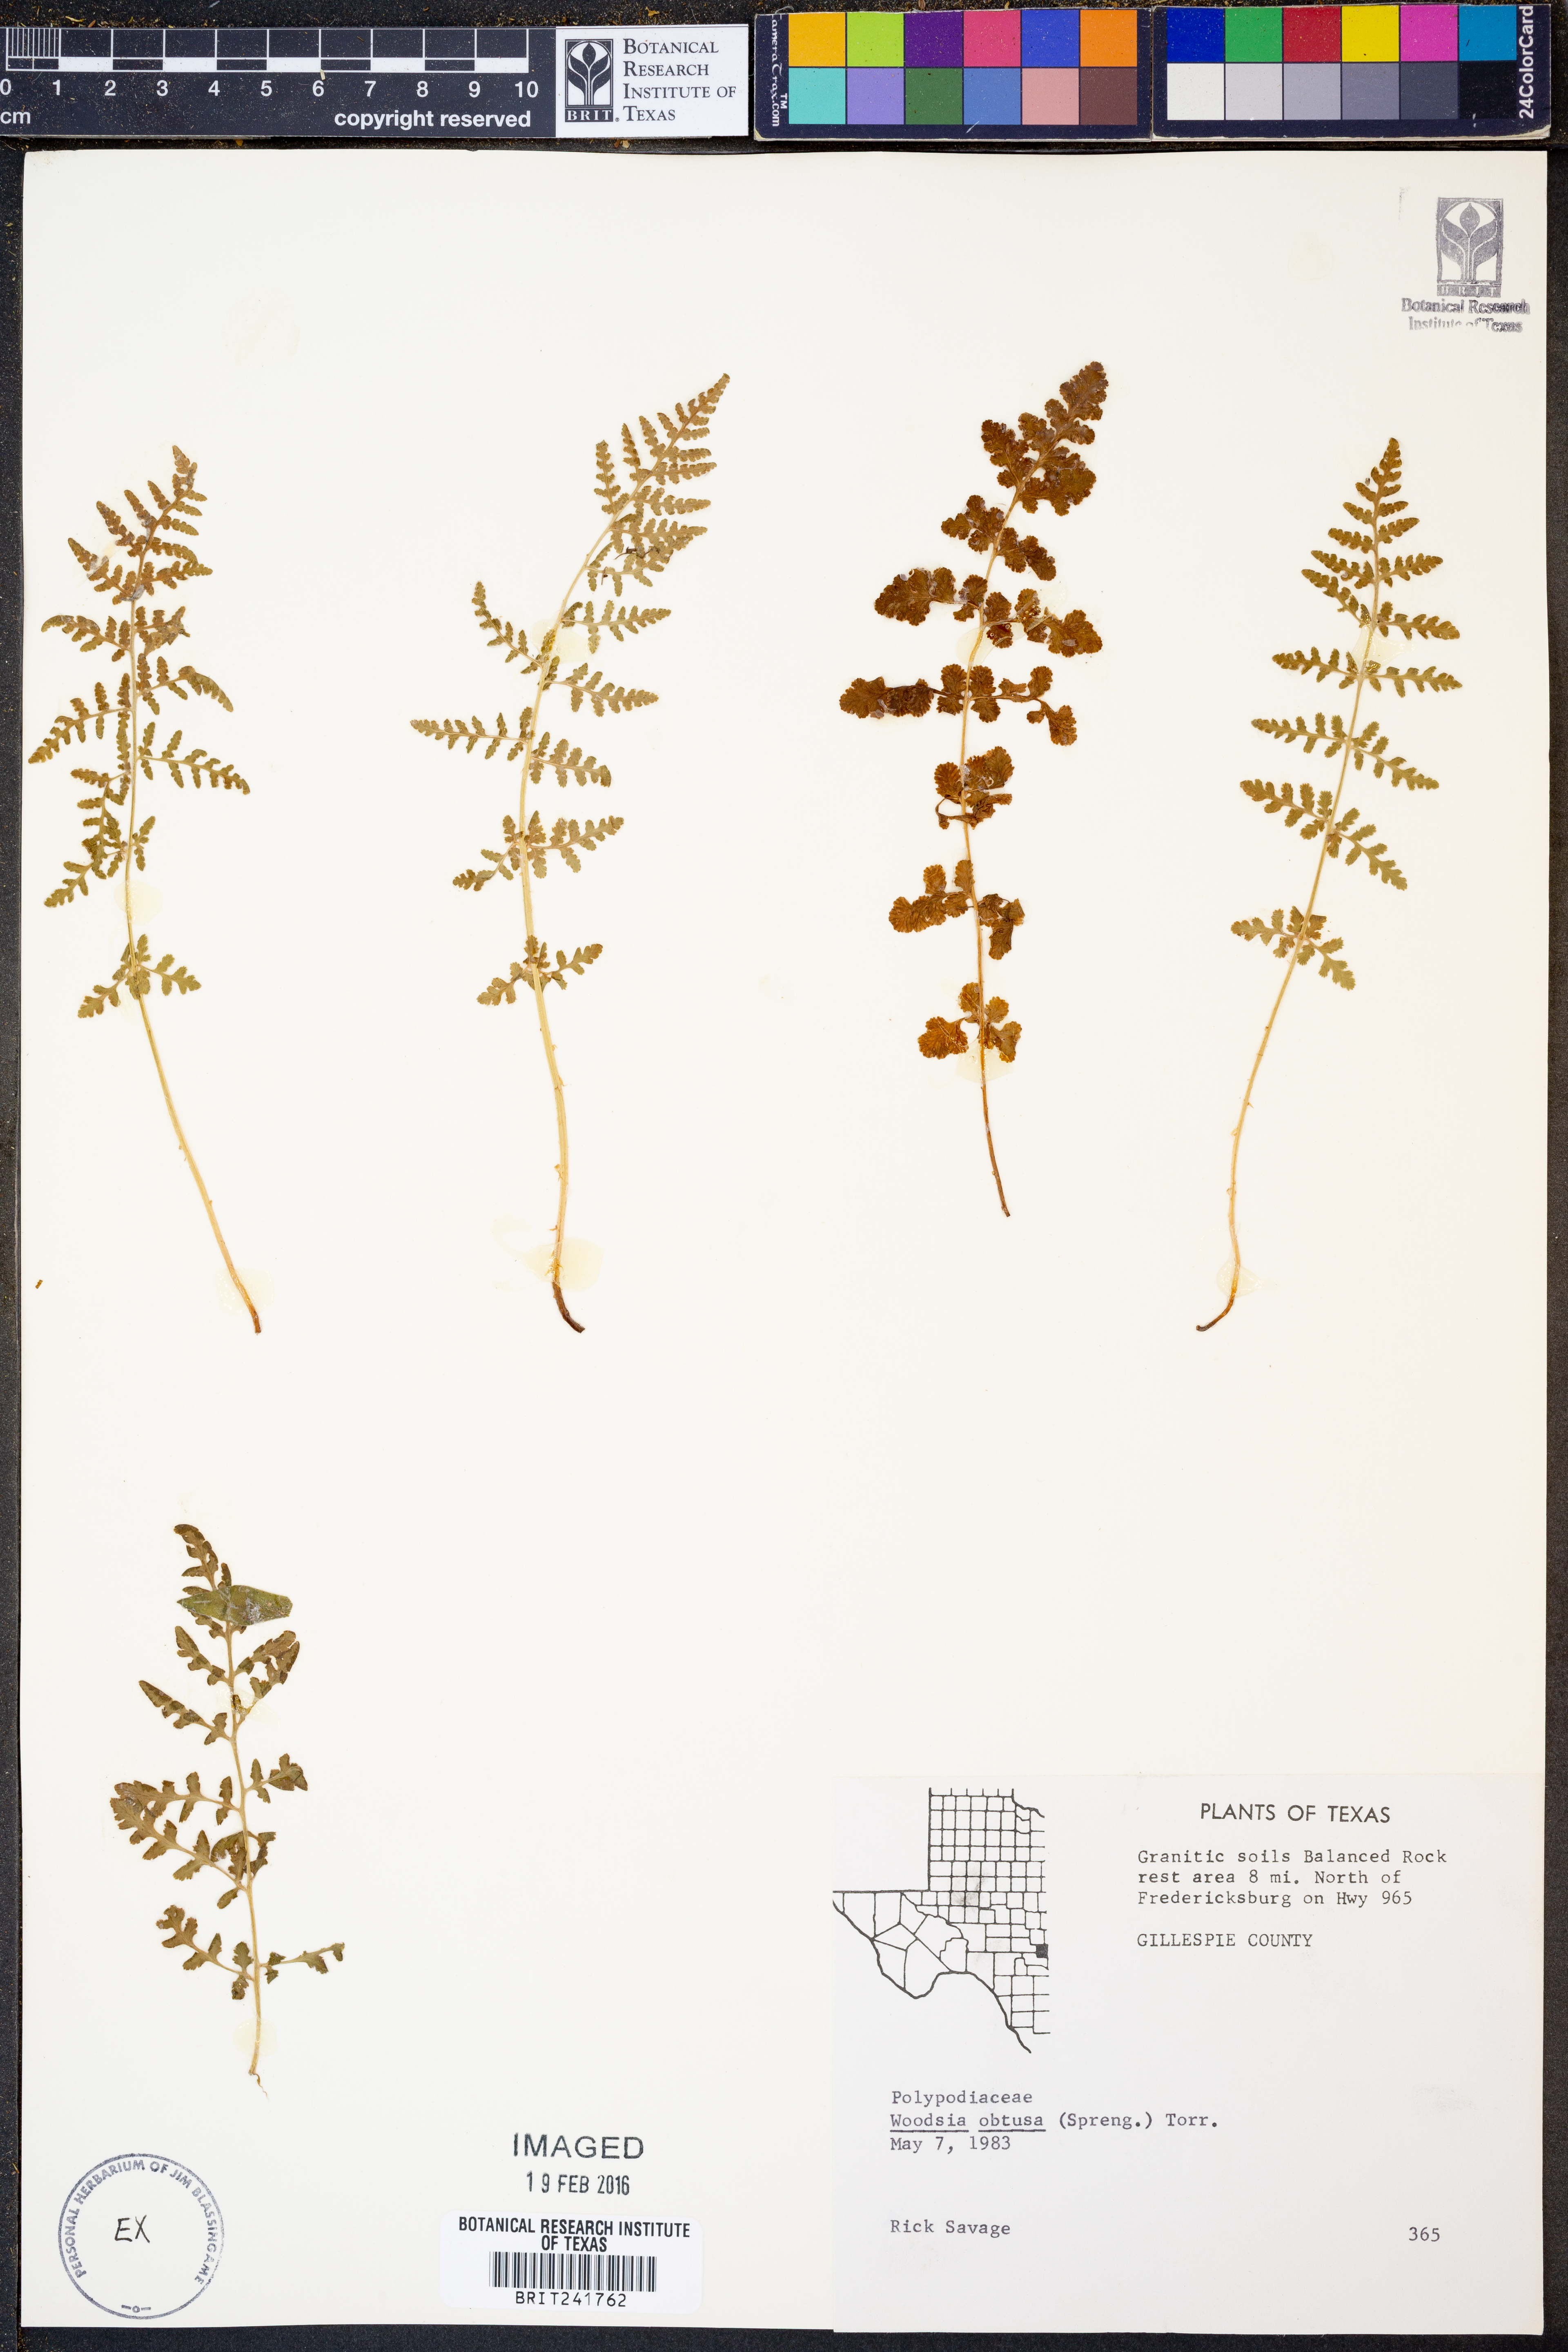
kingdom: Plantae
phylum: Tracheophyta
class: Polypodiopsida
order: Polypodiales
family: Woodsiaceae
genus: Physematium
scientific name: Physematium obtusum
